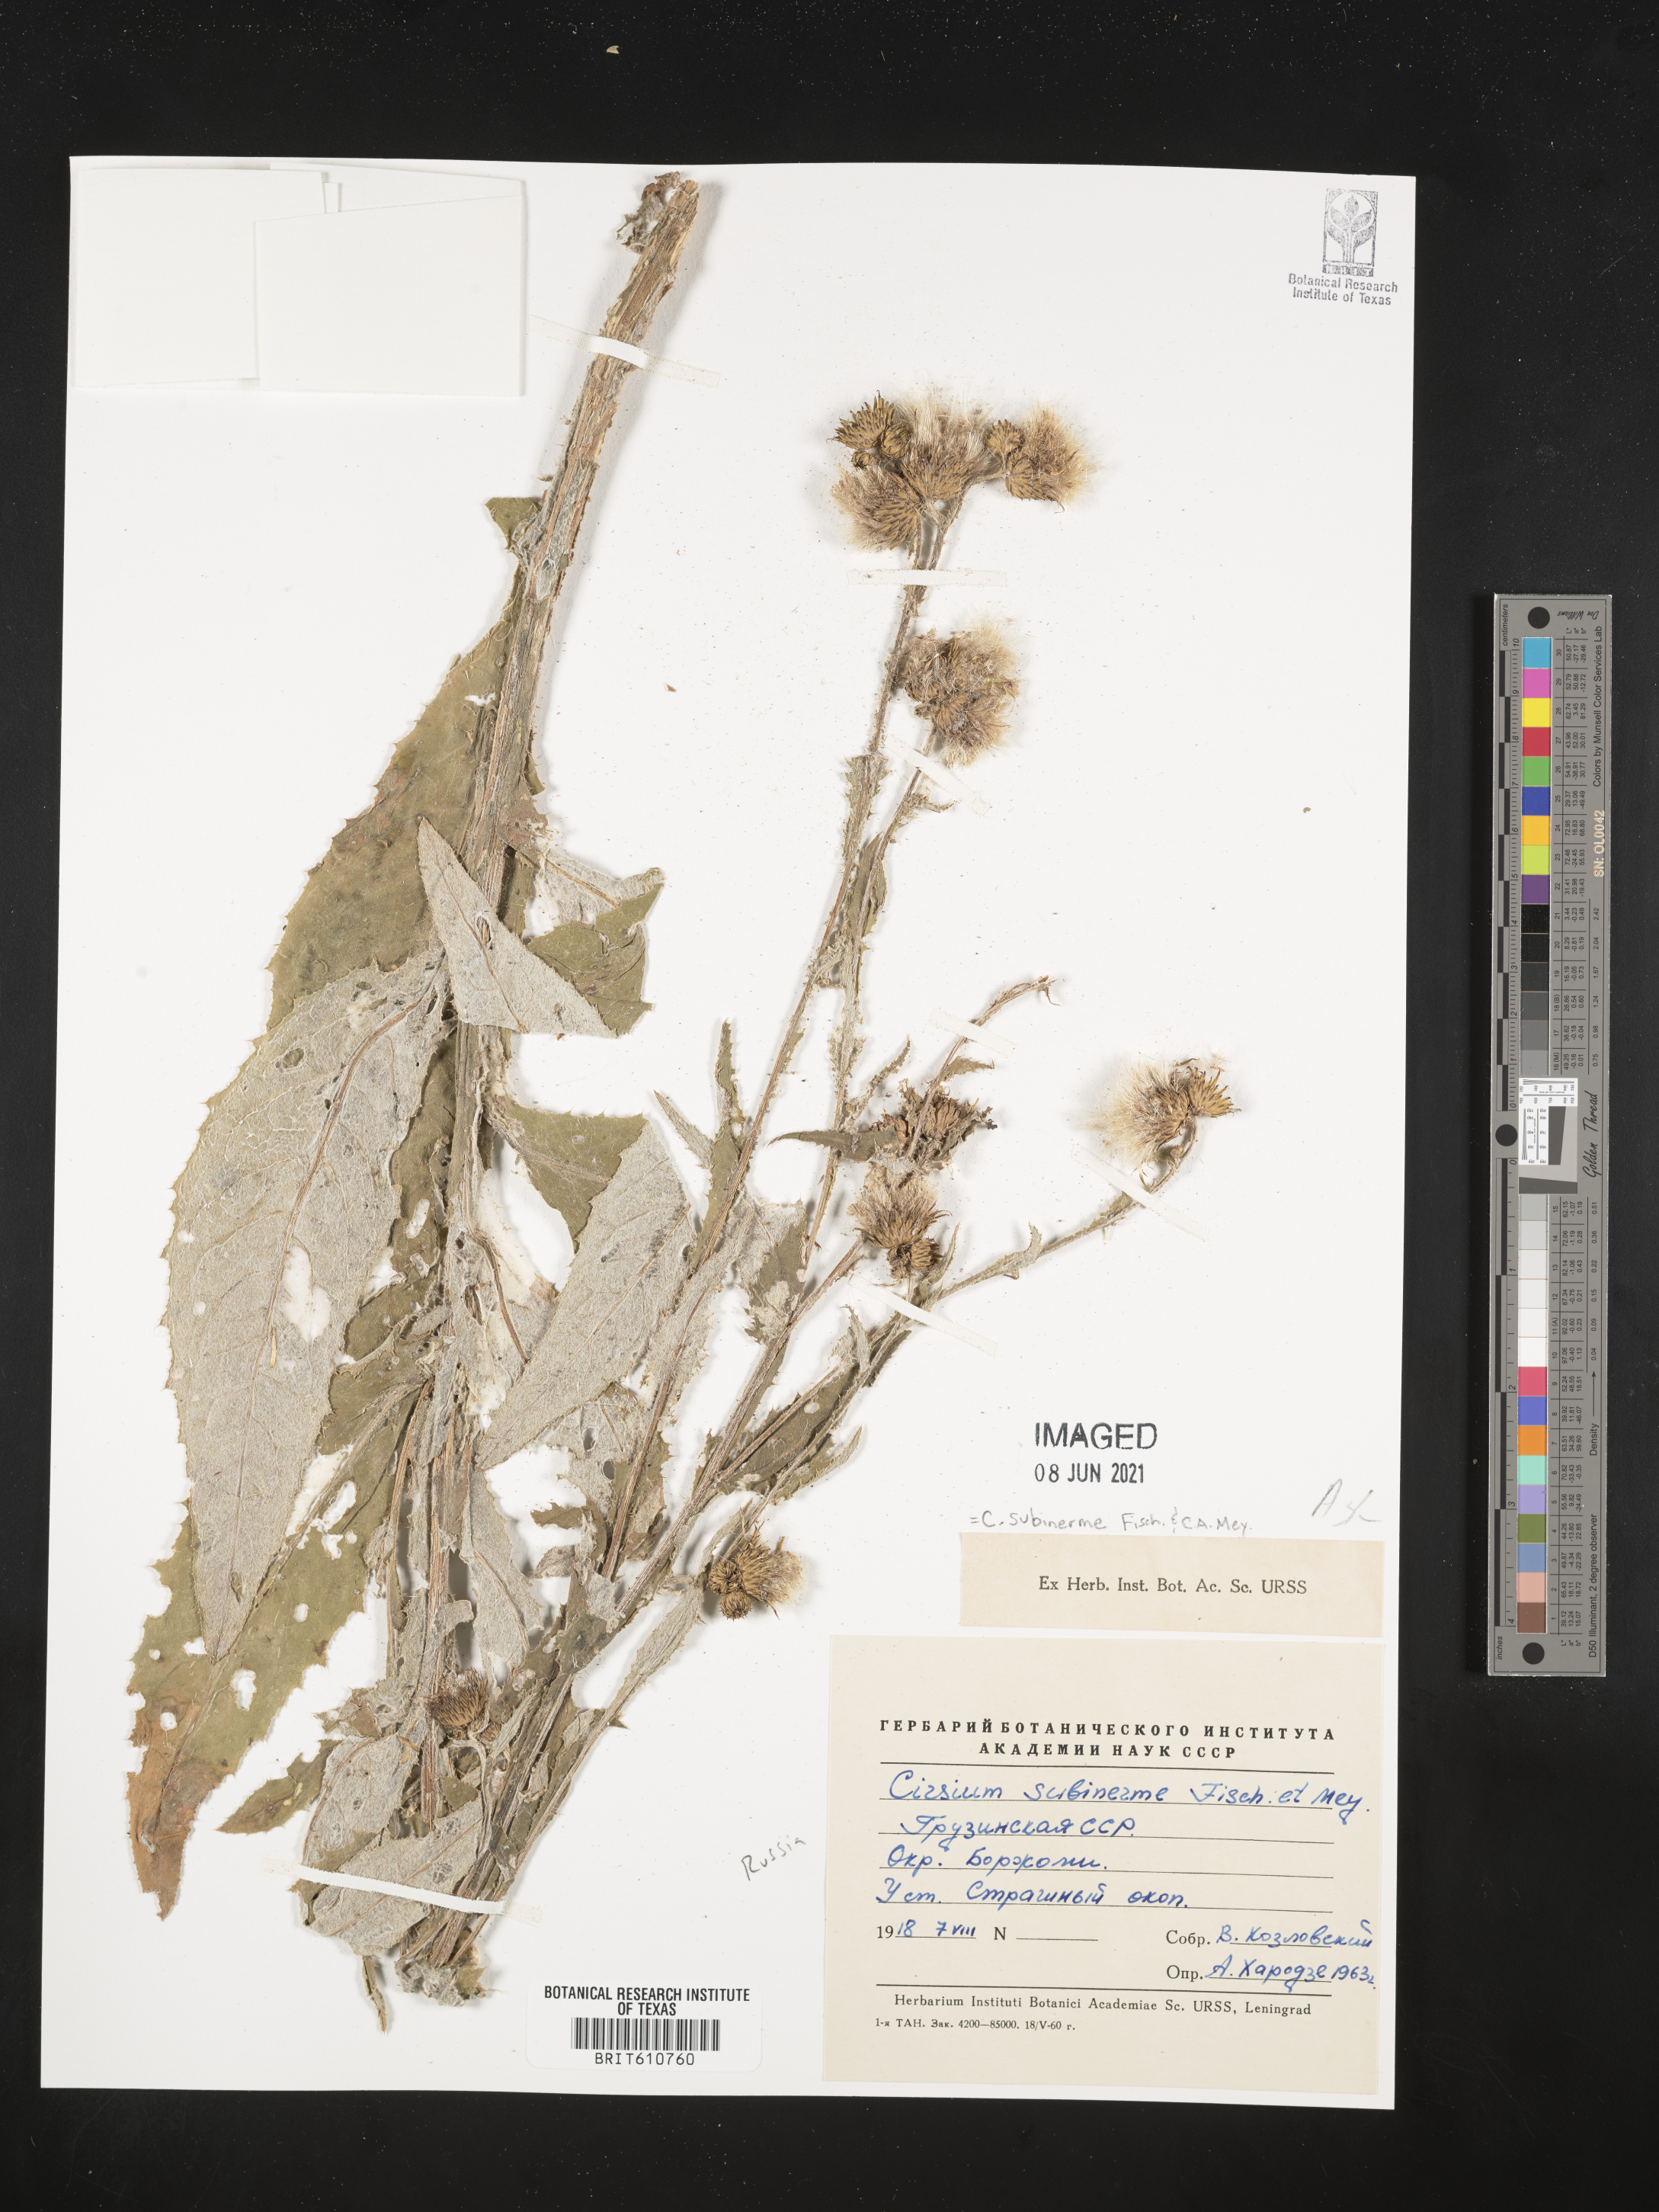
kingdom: Plantae
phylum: Tracheophyta
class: Magnoliopsida
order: Asterales
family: Asteraceae
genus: Cirsium
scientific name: Cirsium subinerme
